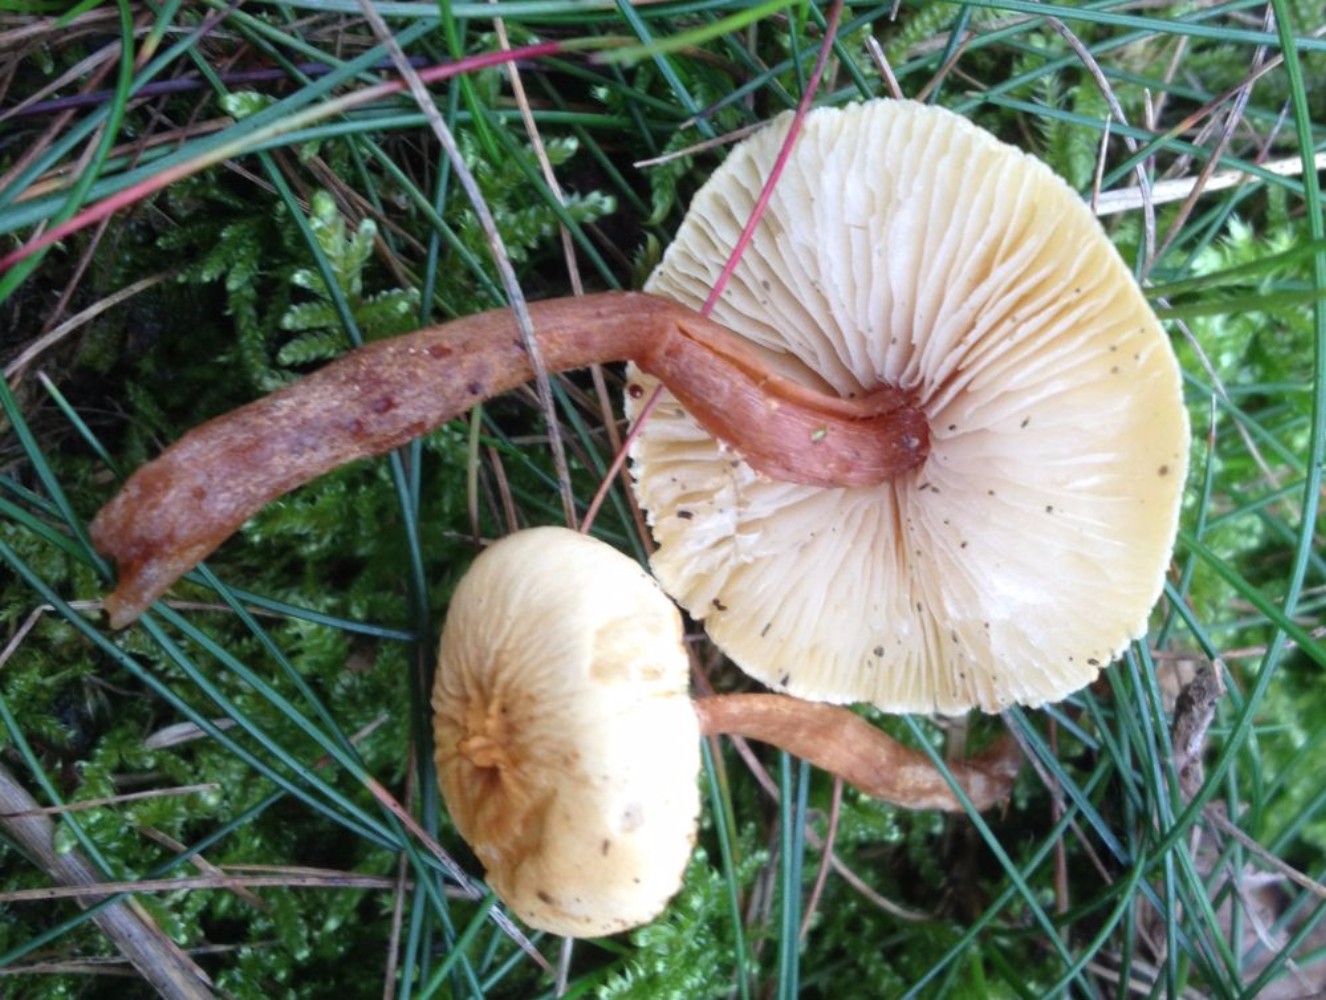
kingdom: Fungi
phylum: Basidiomycota
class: Agaricomycetes
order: Agaricales
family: Tricholomataceae
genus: Cystoderma
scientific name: Cystoderma
